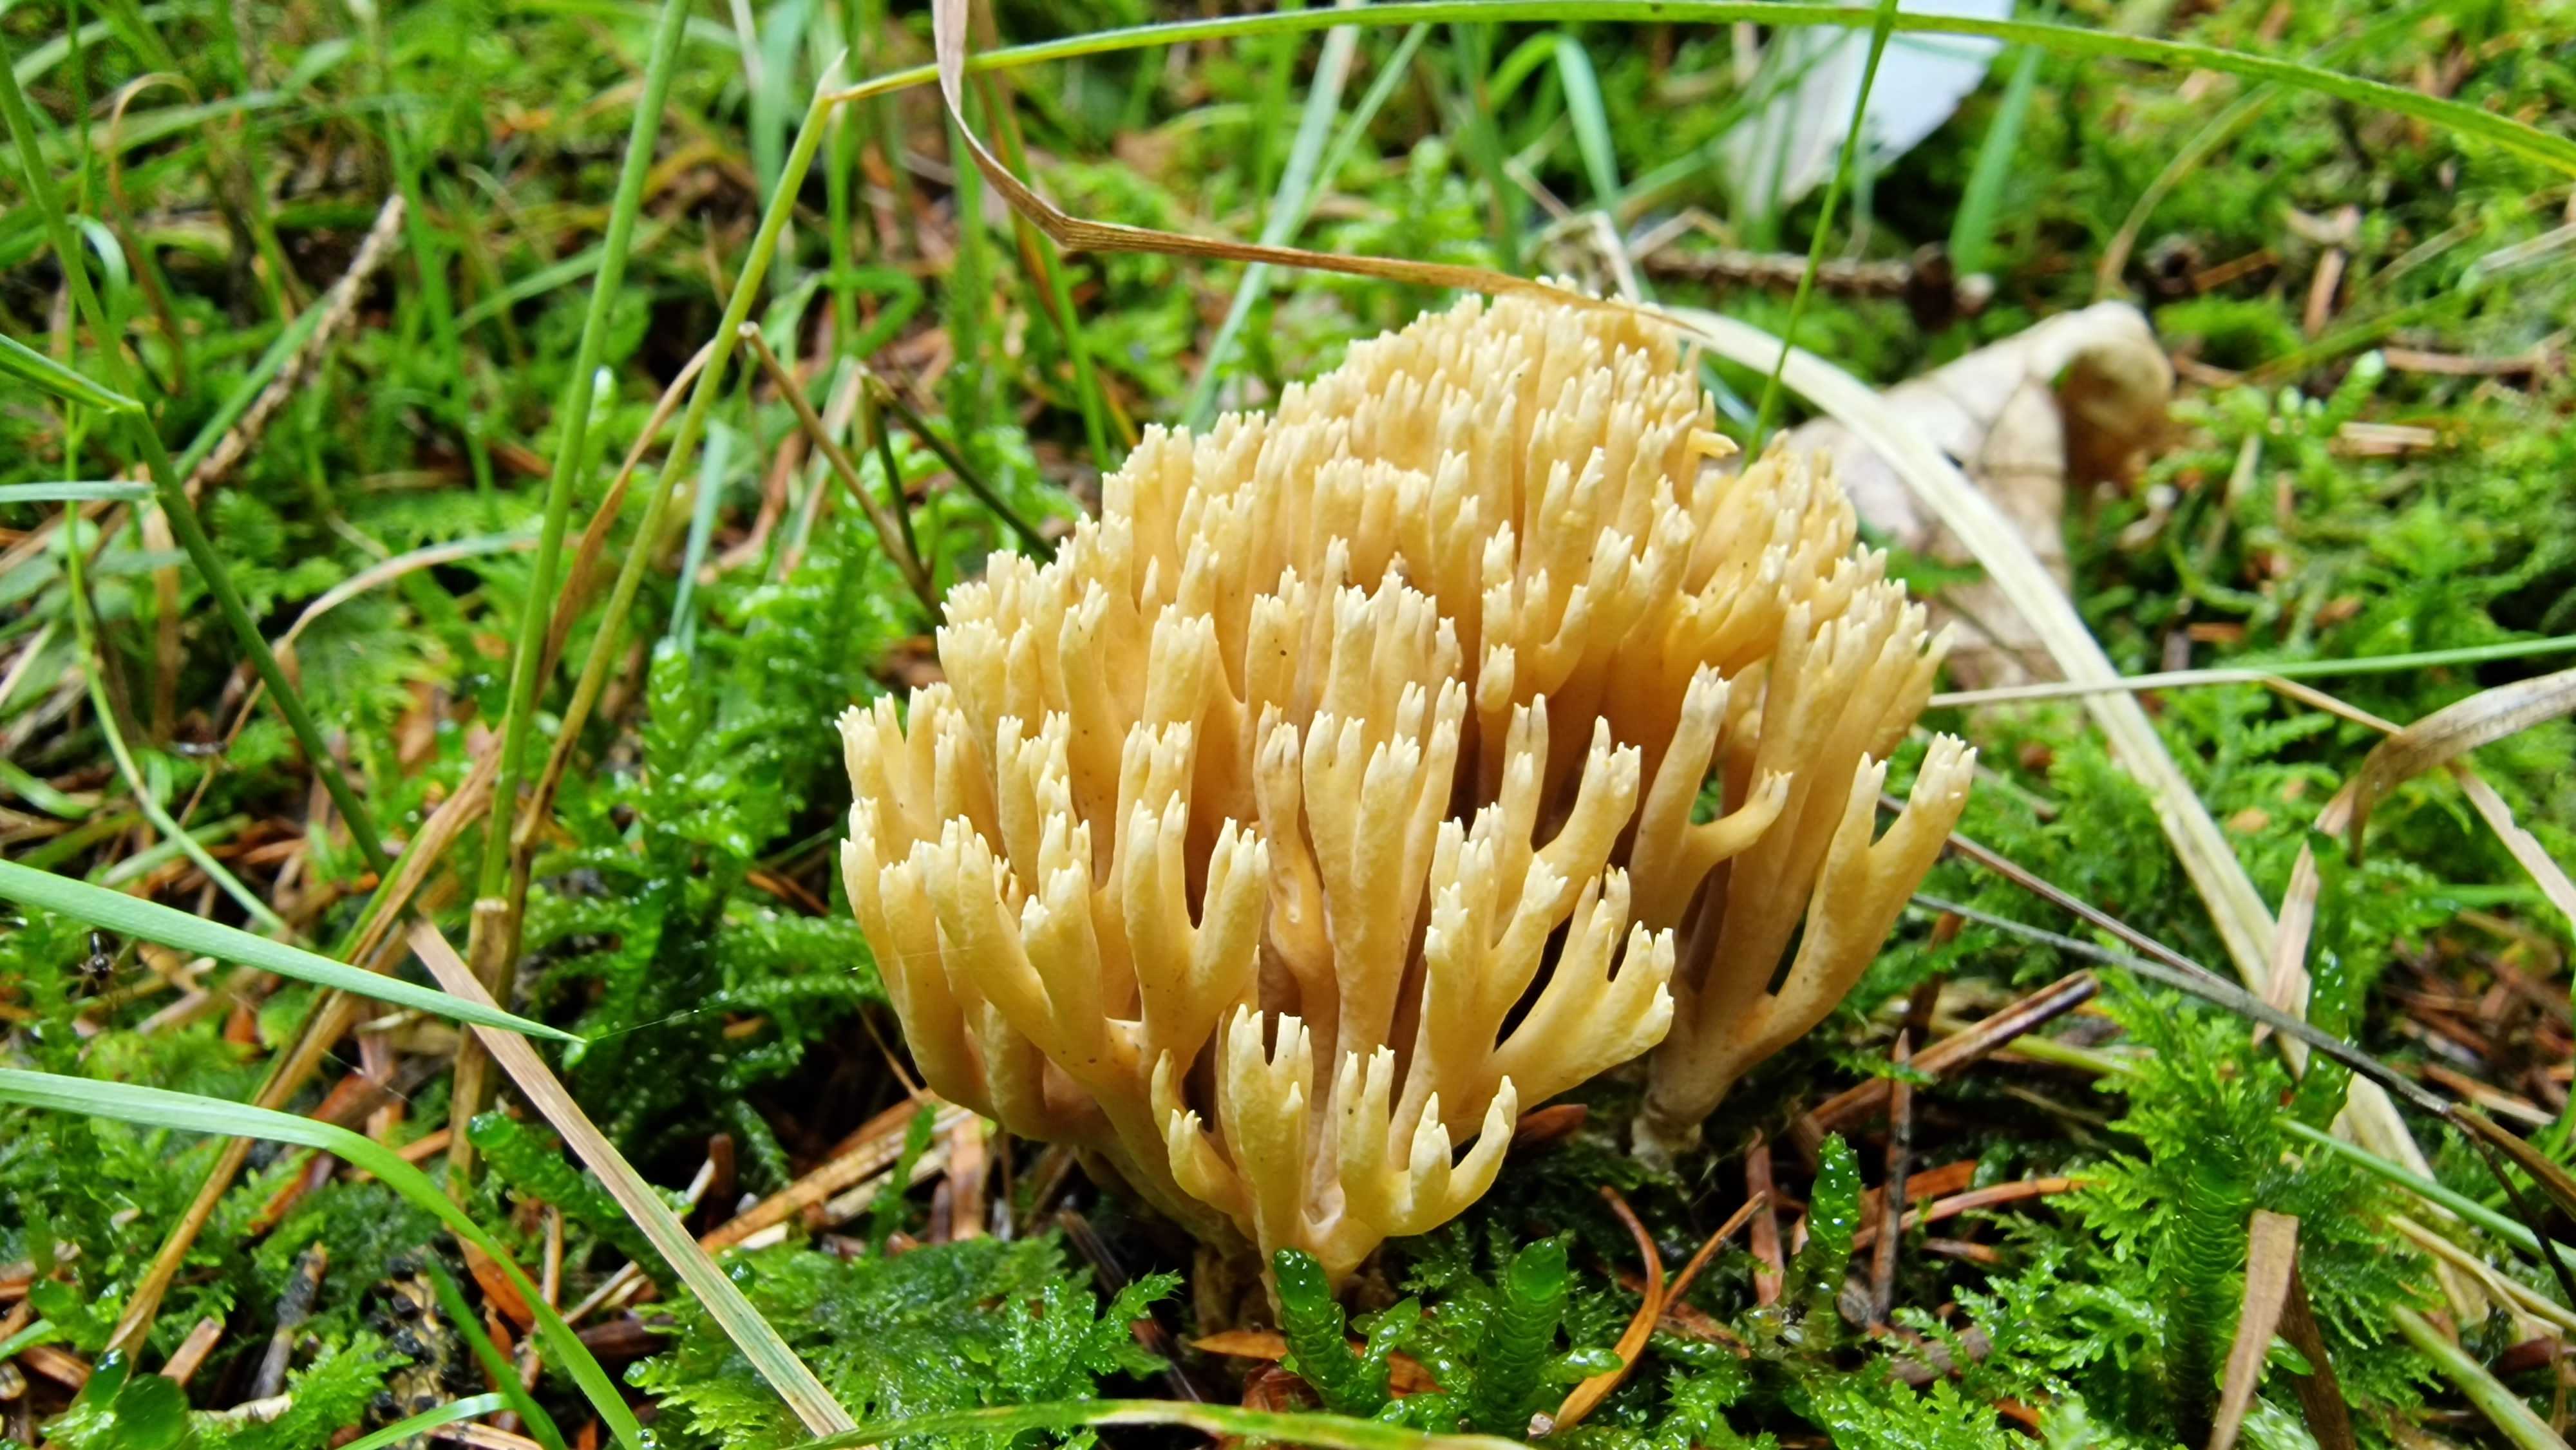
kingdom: Fungi
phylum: Basidiomycota
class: Agaricomycetes
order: Gomphales
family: Gomphaceae
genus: Phaeoclavulina
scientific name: Phaeoclavulina eumorpha
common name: gran-koralsvamp
